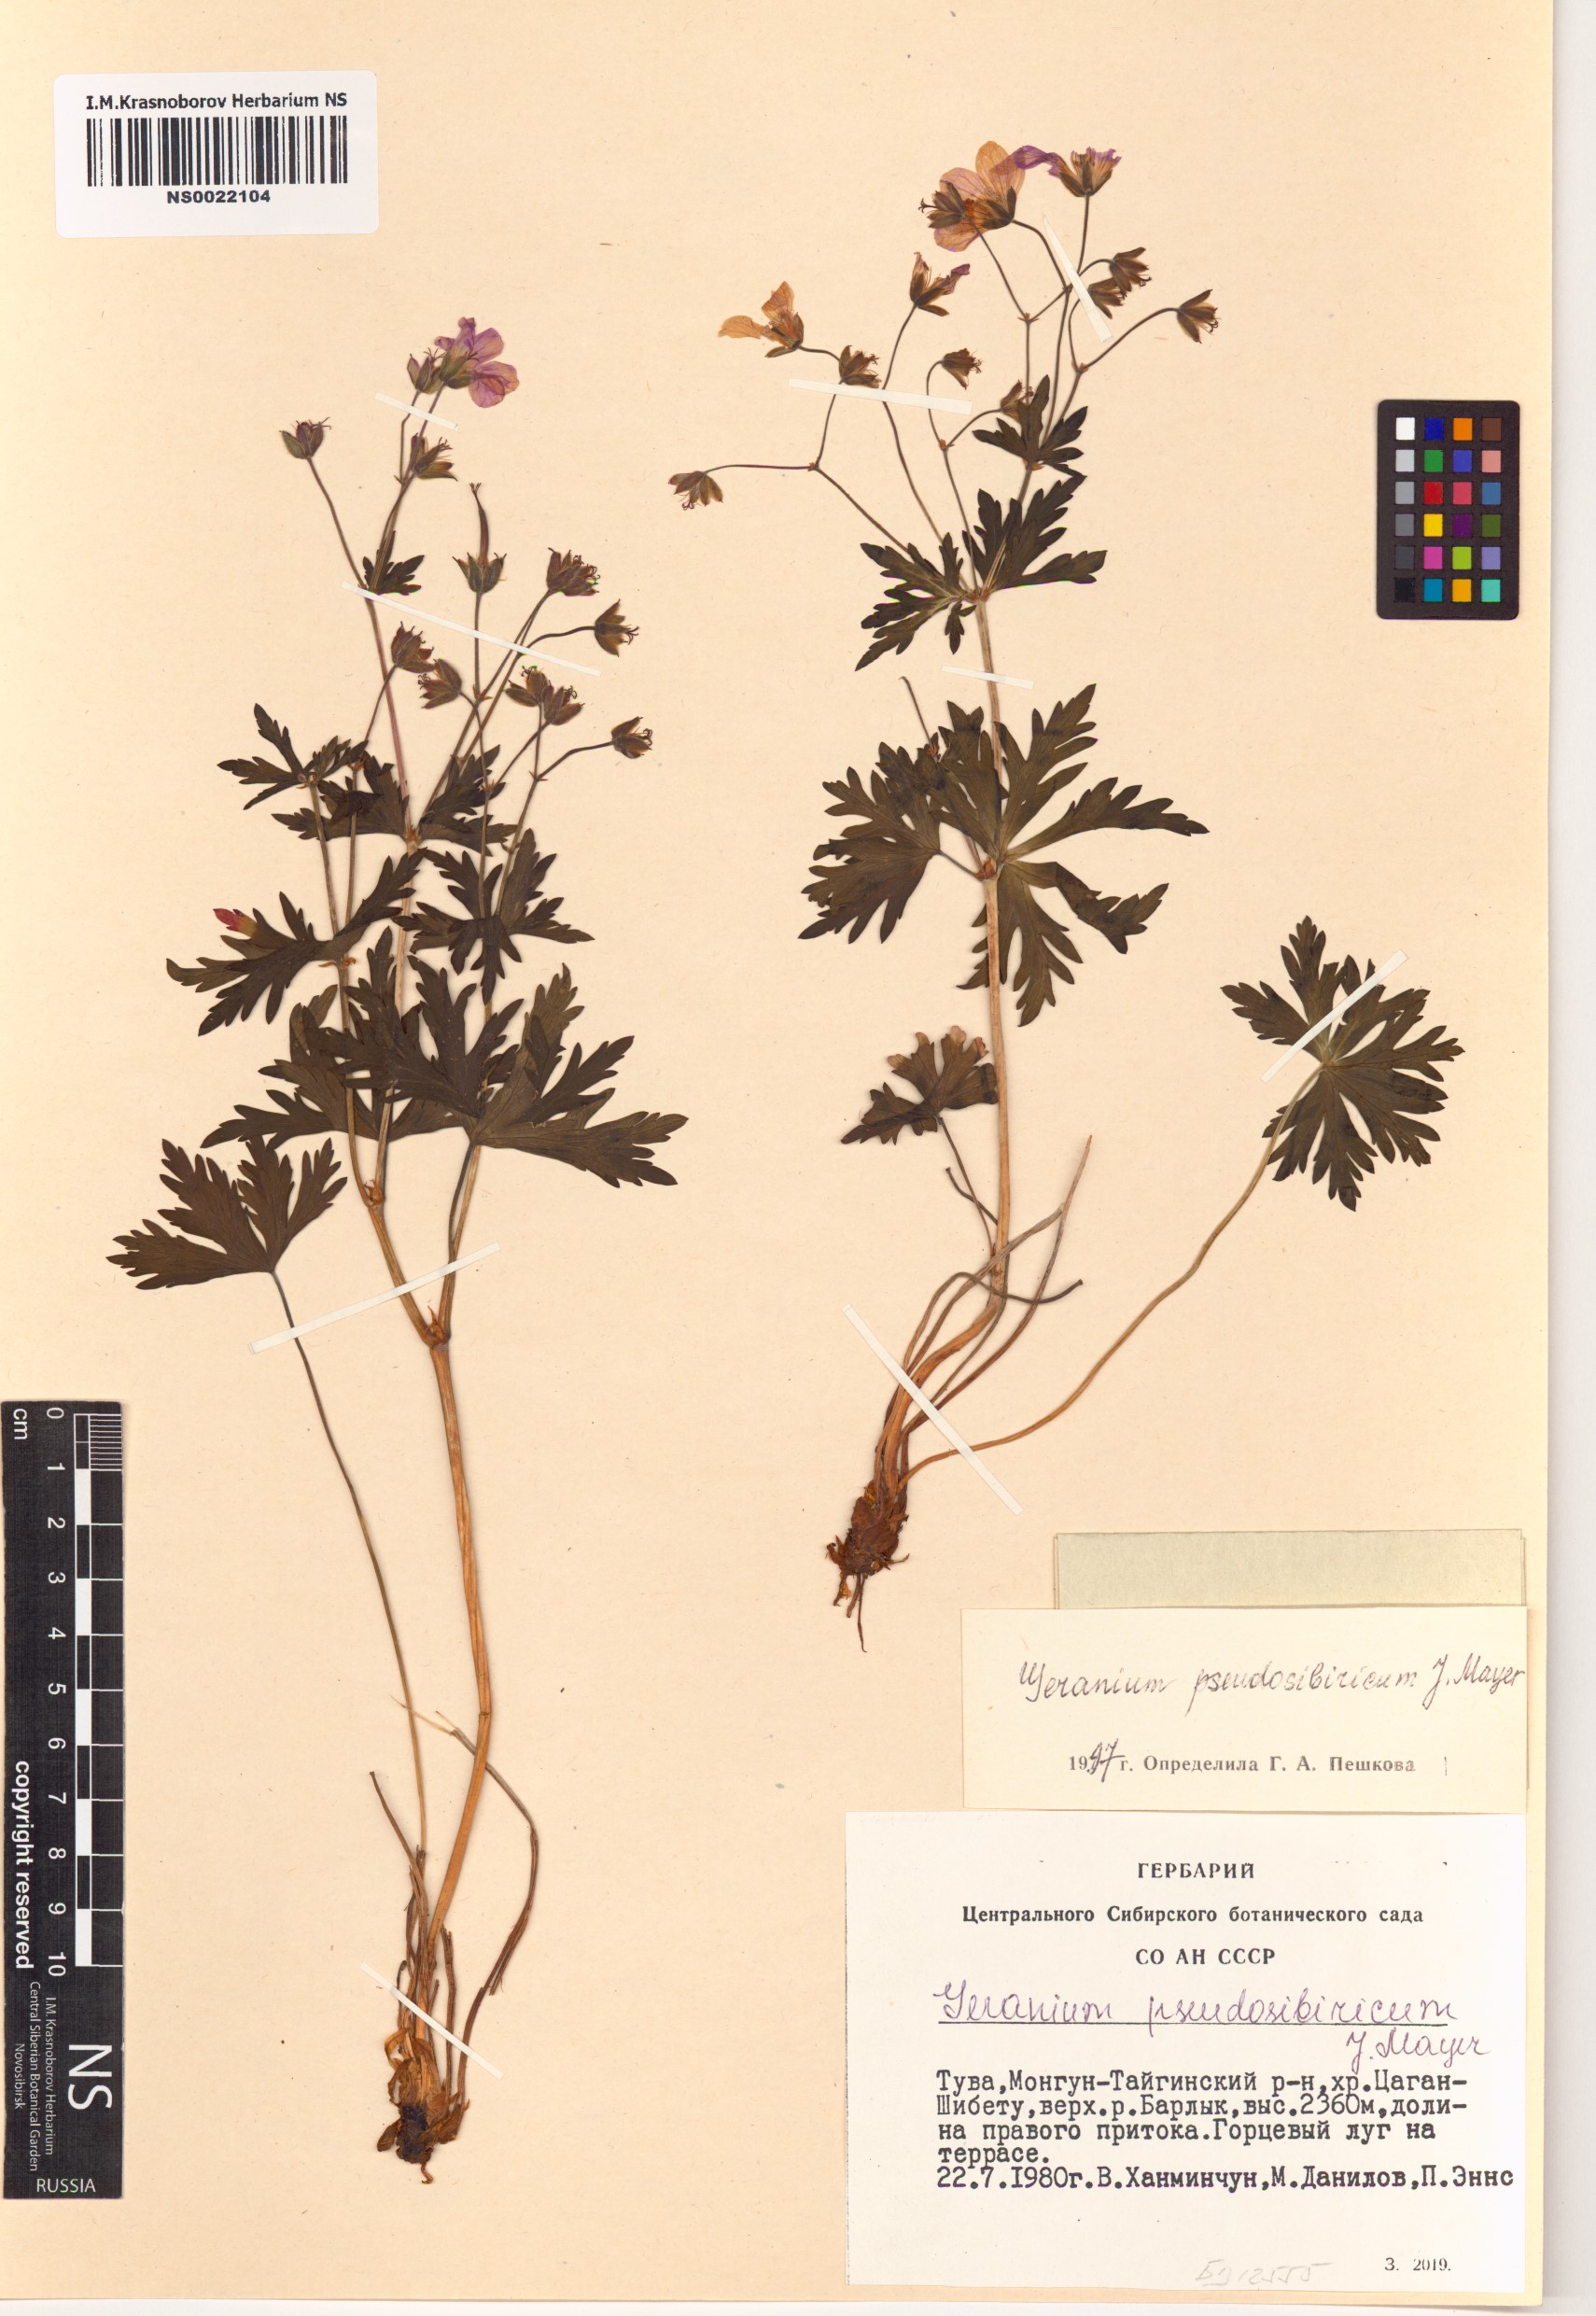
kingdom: Plantae
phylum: Tracheophyta
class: Magnoliopsida
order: Geraniales
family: Geraniaceae
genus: Geranium
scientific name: Geranium pseudosibiricum
